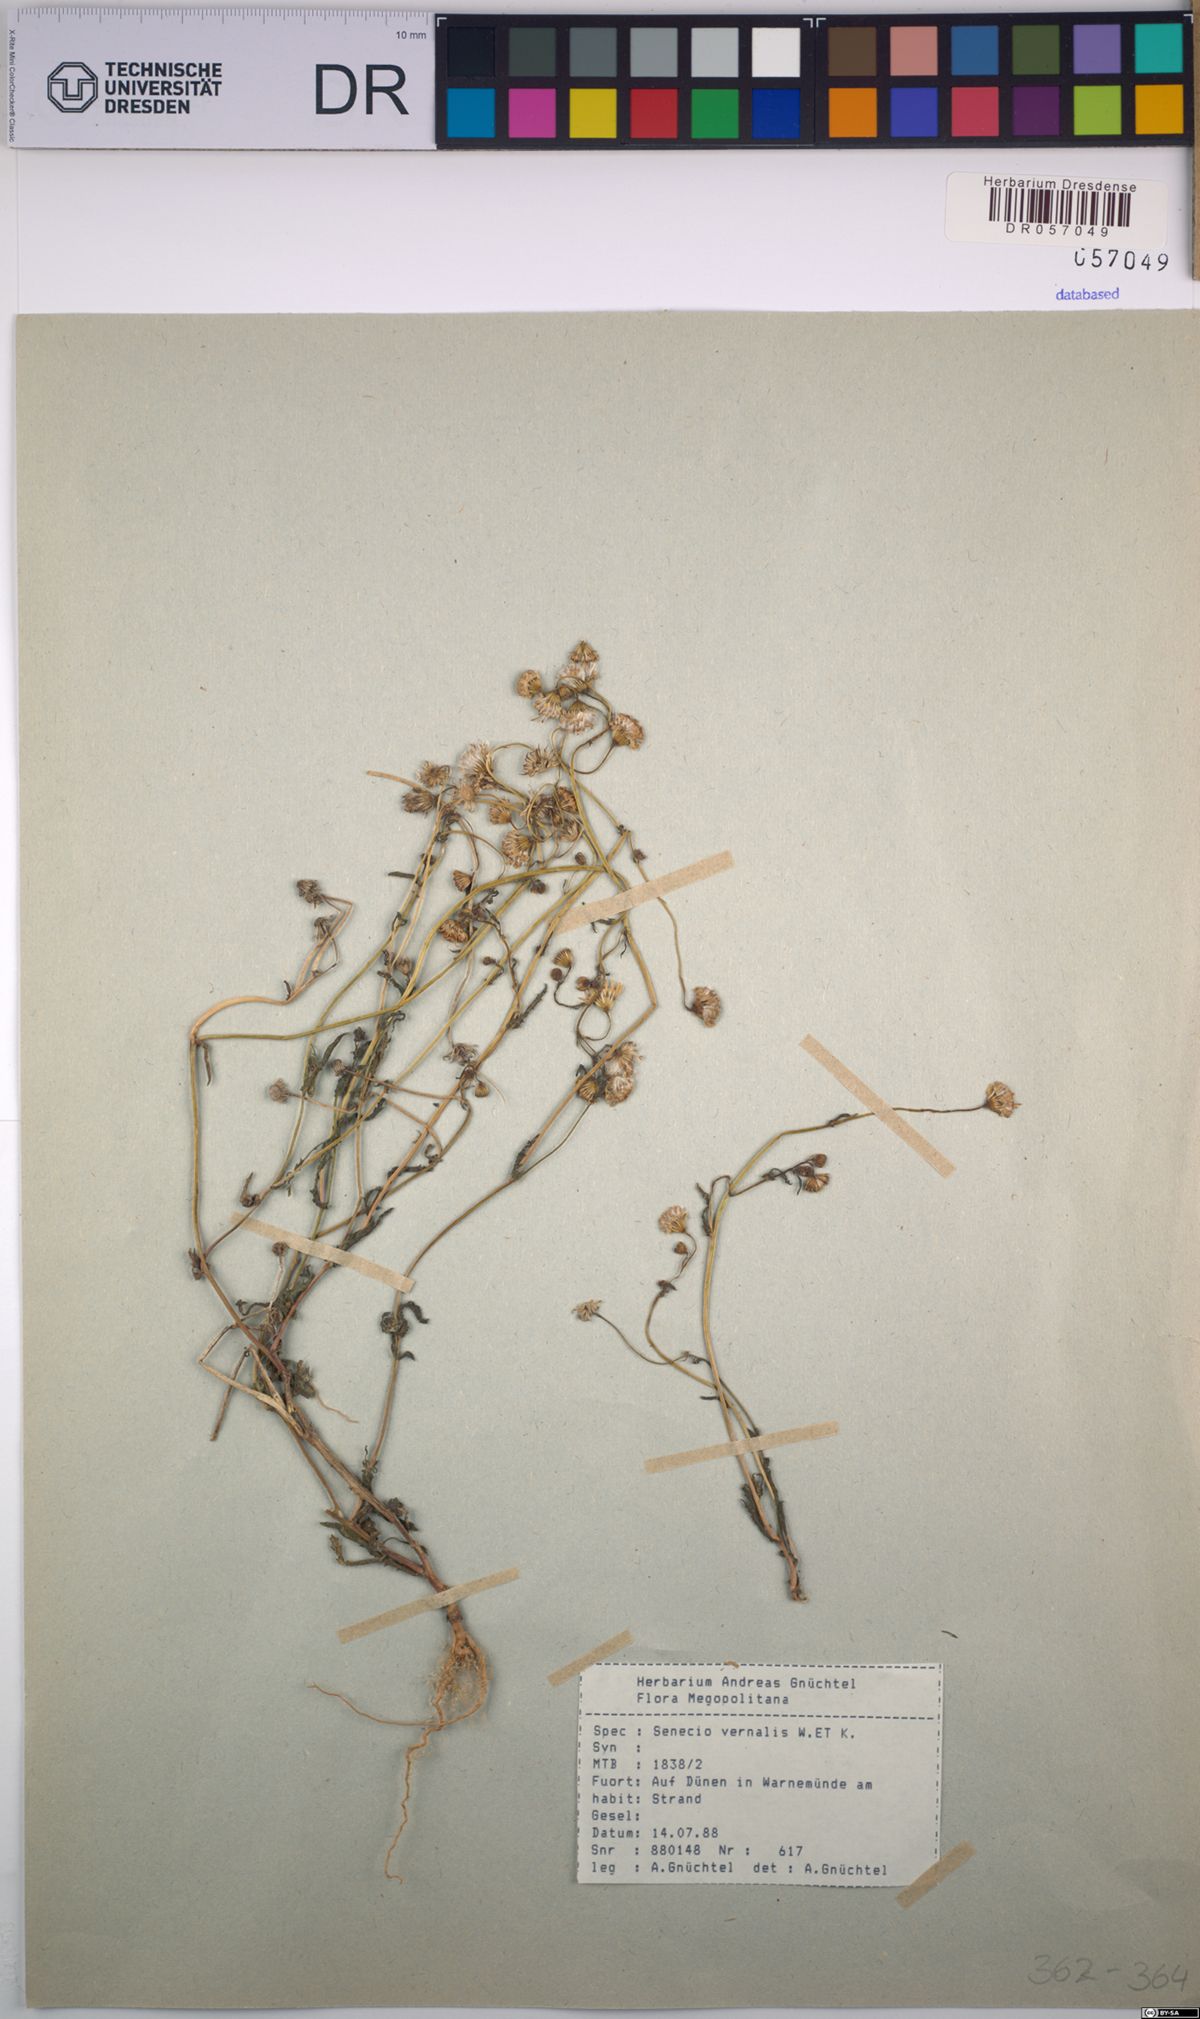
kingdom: Plantae
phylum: Tracheophyta
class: Magnoliopsida
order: Asterales
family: Asteraceae
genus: Senecio
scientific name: Senecio vernalis
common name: Eastern groundsel
